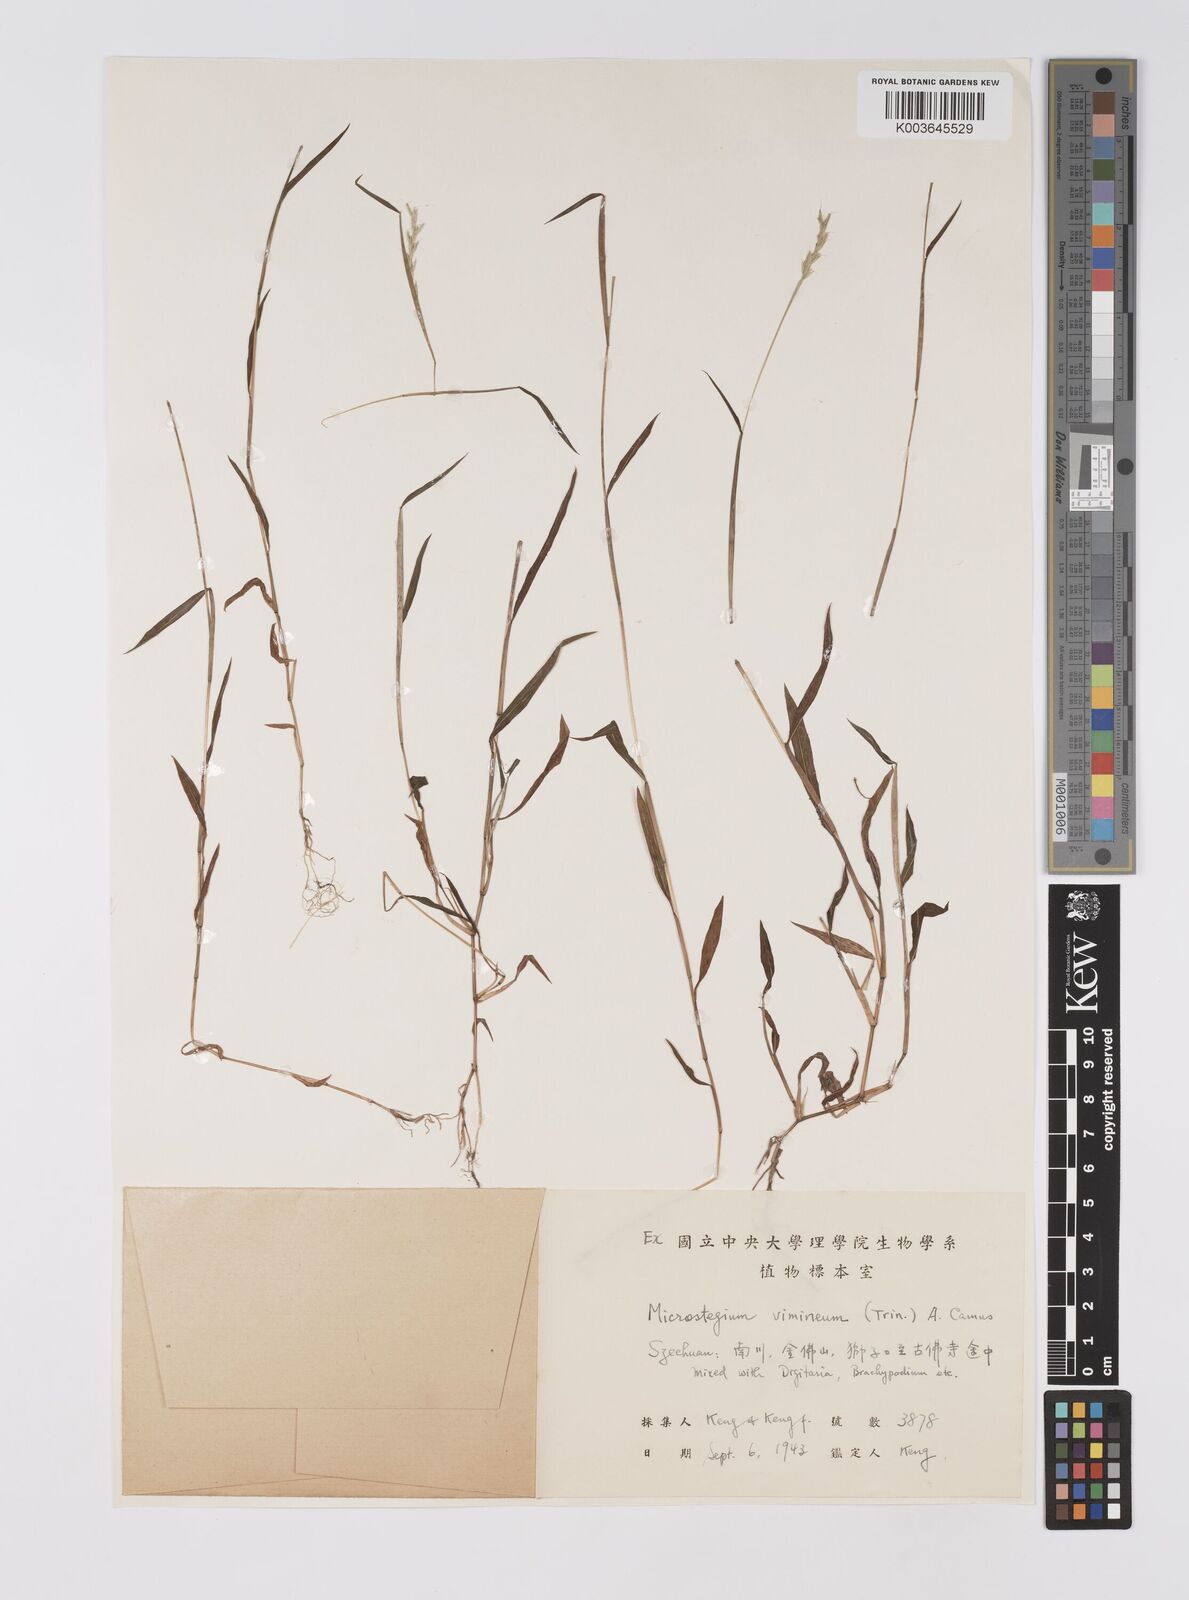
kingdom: Plantae
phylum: Tracheophyta
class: Liliopsida
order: Poales
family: Poaceae
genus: Microstegium
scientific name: Microstegium vimineum
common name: Japanese stiltgrass
